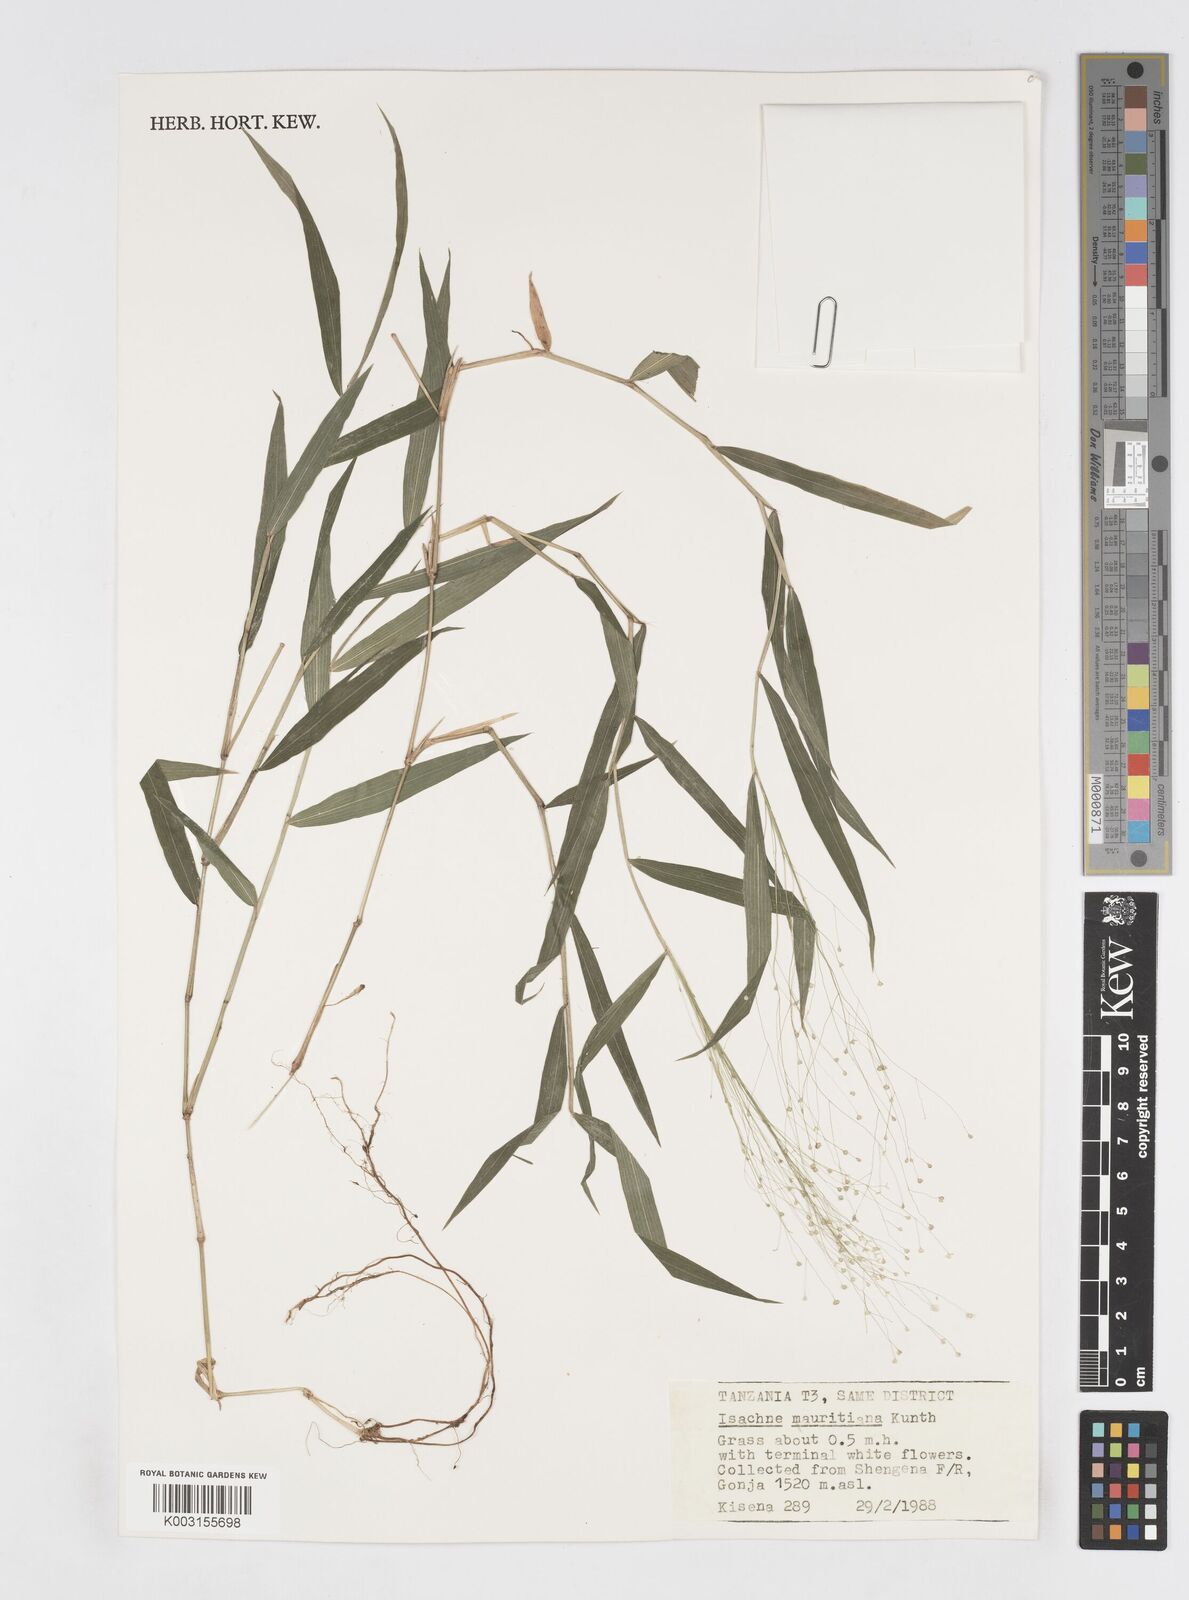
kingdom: Plantae
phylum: Tracheophyta
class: Liliopsida
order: Poales
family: Poaceae
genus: Isachne
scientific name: Isachne mauritiana
